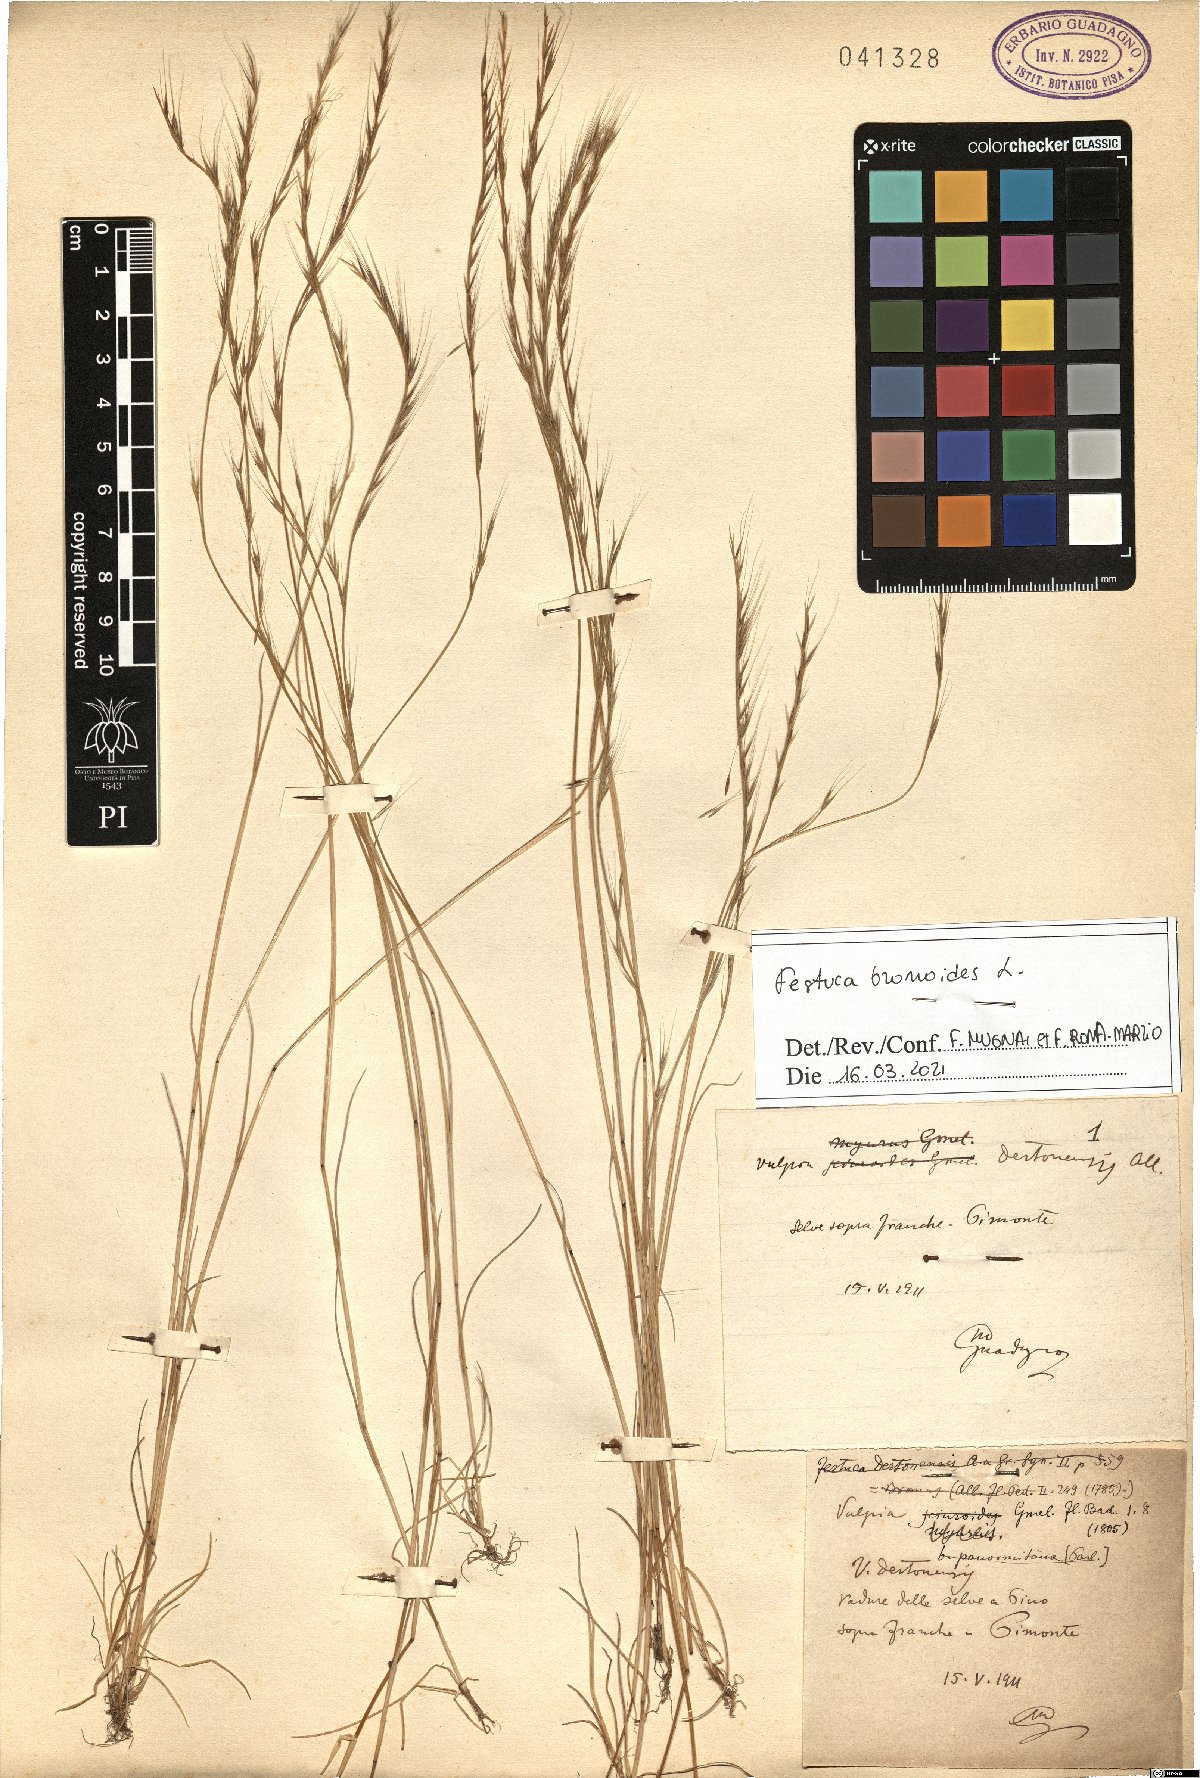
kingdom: Plantae
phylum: Tracheophyta
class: Liliopsida
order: Poales
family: Poaceae
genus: Festuca
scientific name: Festuca bromoides
